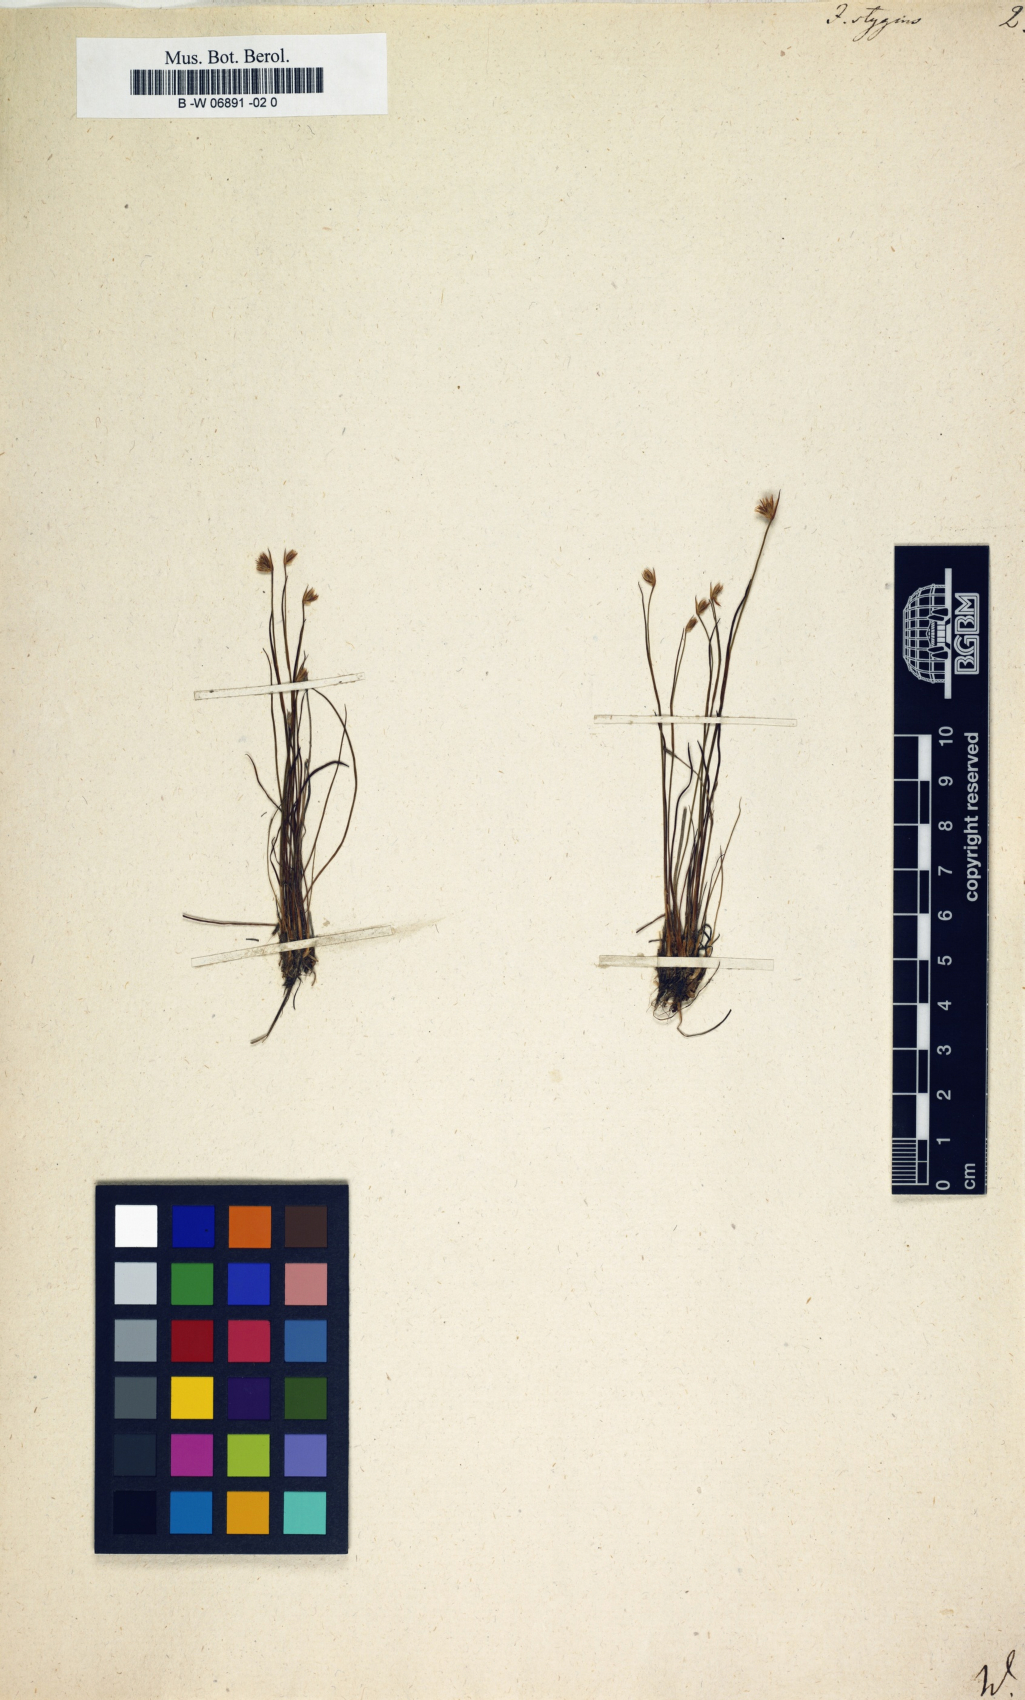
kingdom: Plantae
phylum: Tracheophyta
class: Liliopsida
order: Poales
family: Juncaceae
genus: Juncus
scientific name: Juncus stygius
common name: Bog rush
